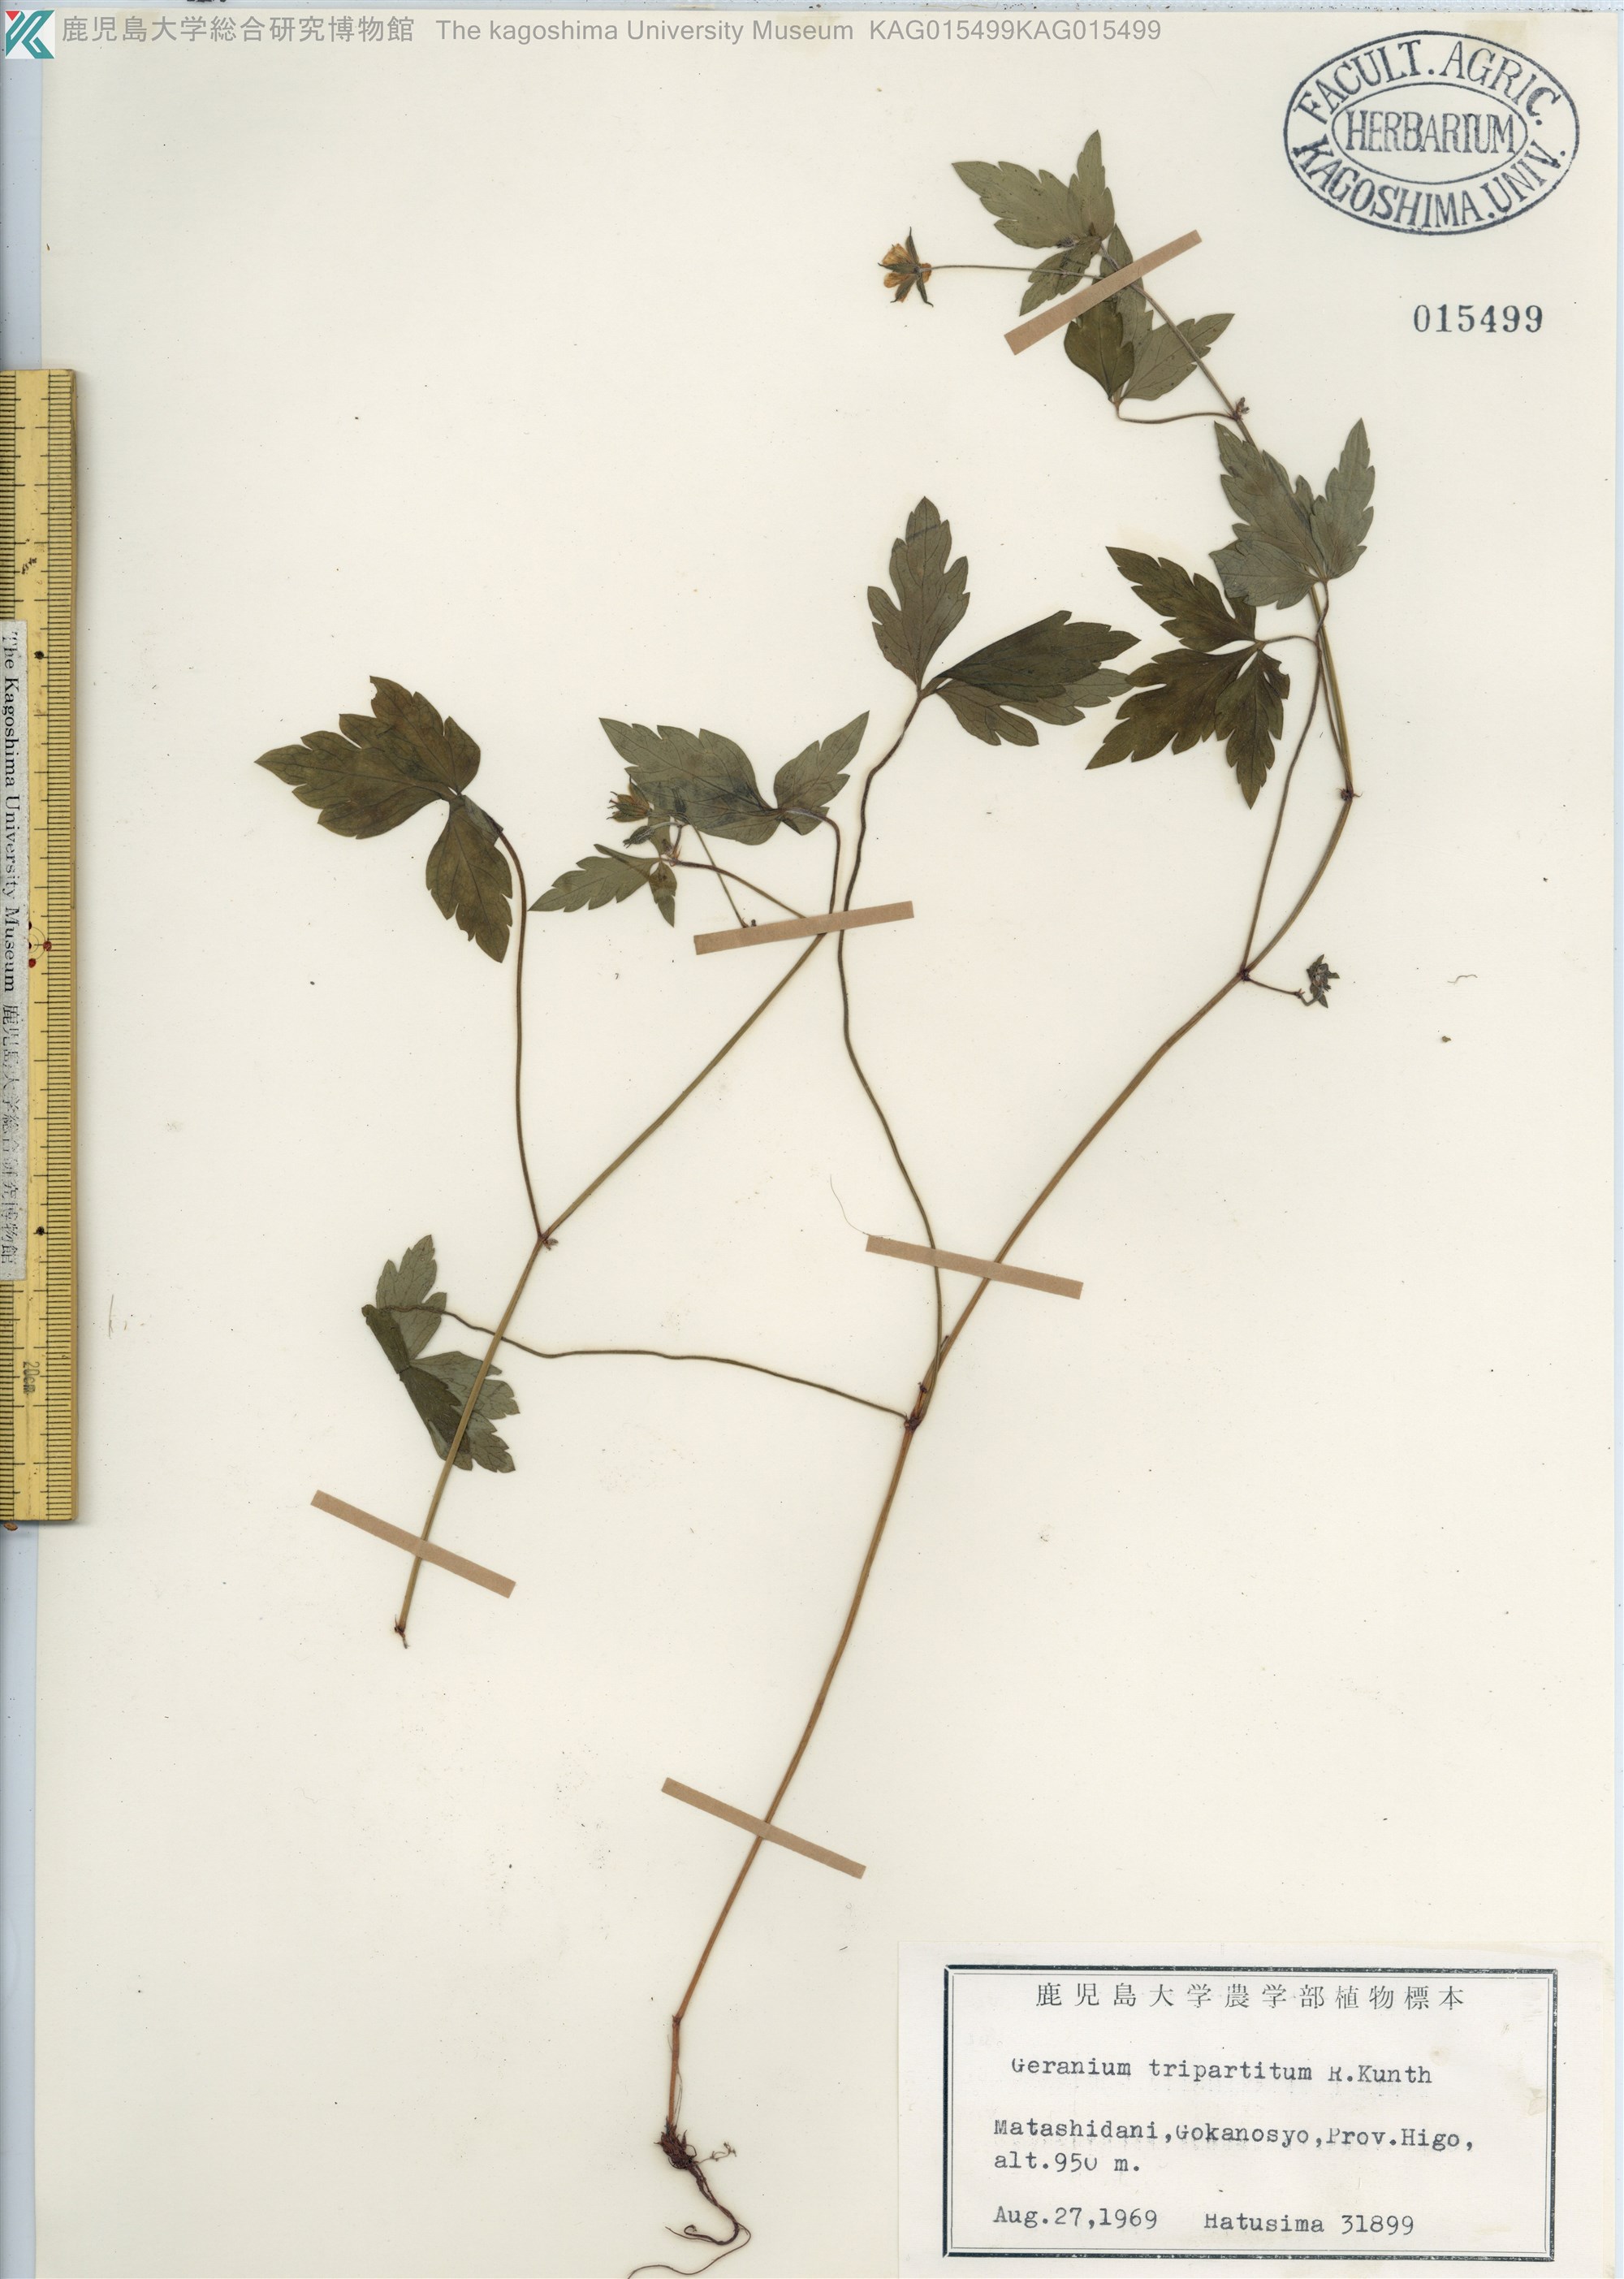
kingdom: Plantae
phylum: Tracheophyta
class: Magnoliopsida
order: Geraniales
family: Geraniaceae
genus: Geranium
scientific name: Geranium tripartitum
